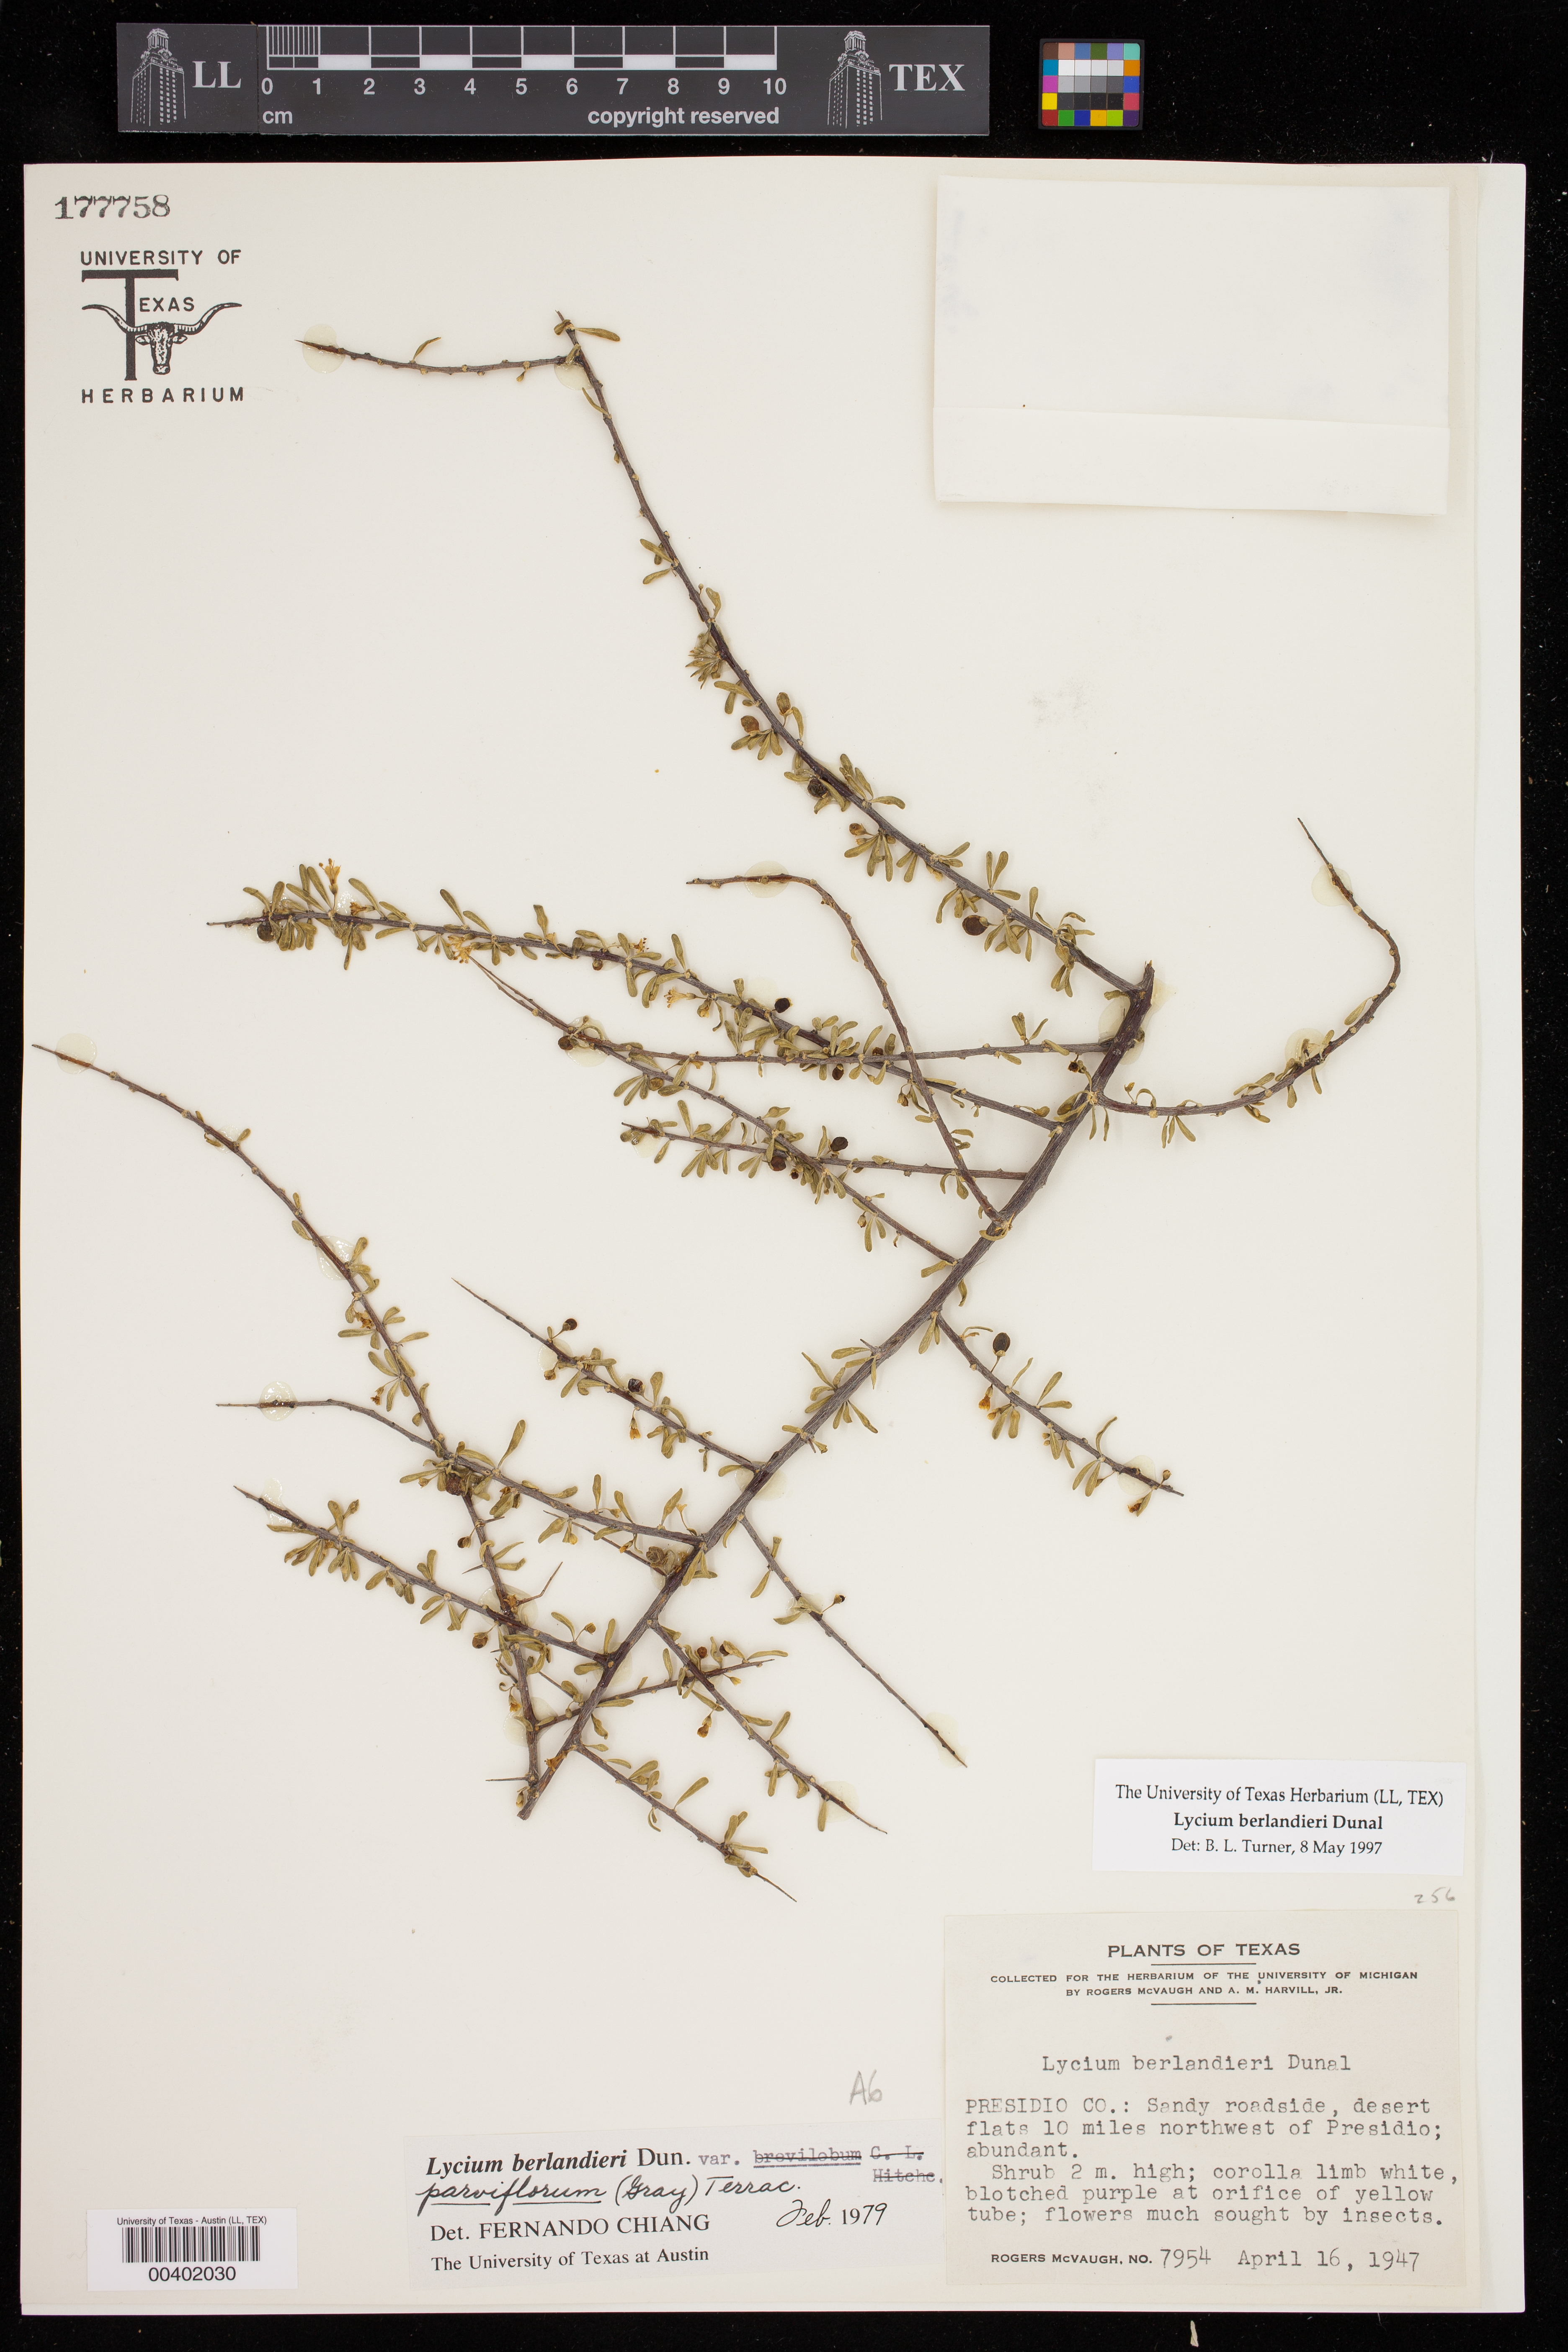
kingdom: Plantae
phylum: Tracheophyta
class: Magnoliopsida
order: Solanales
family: Solanaceae
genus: Lycium
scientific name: Lycium berlandieri
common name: Berlandier wolfberry
